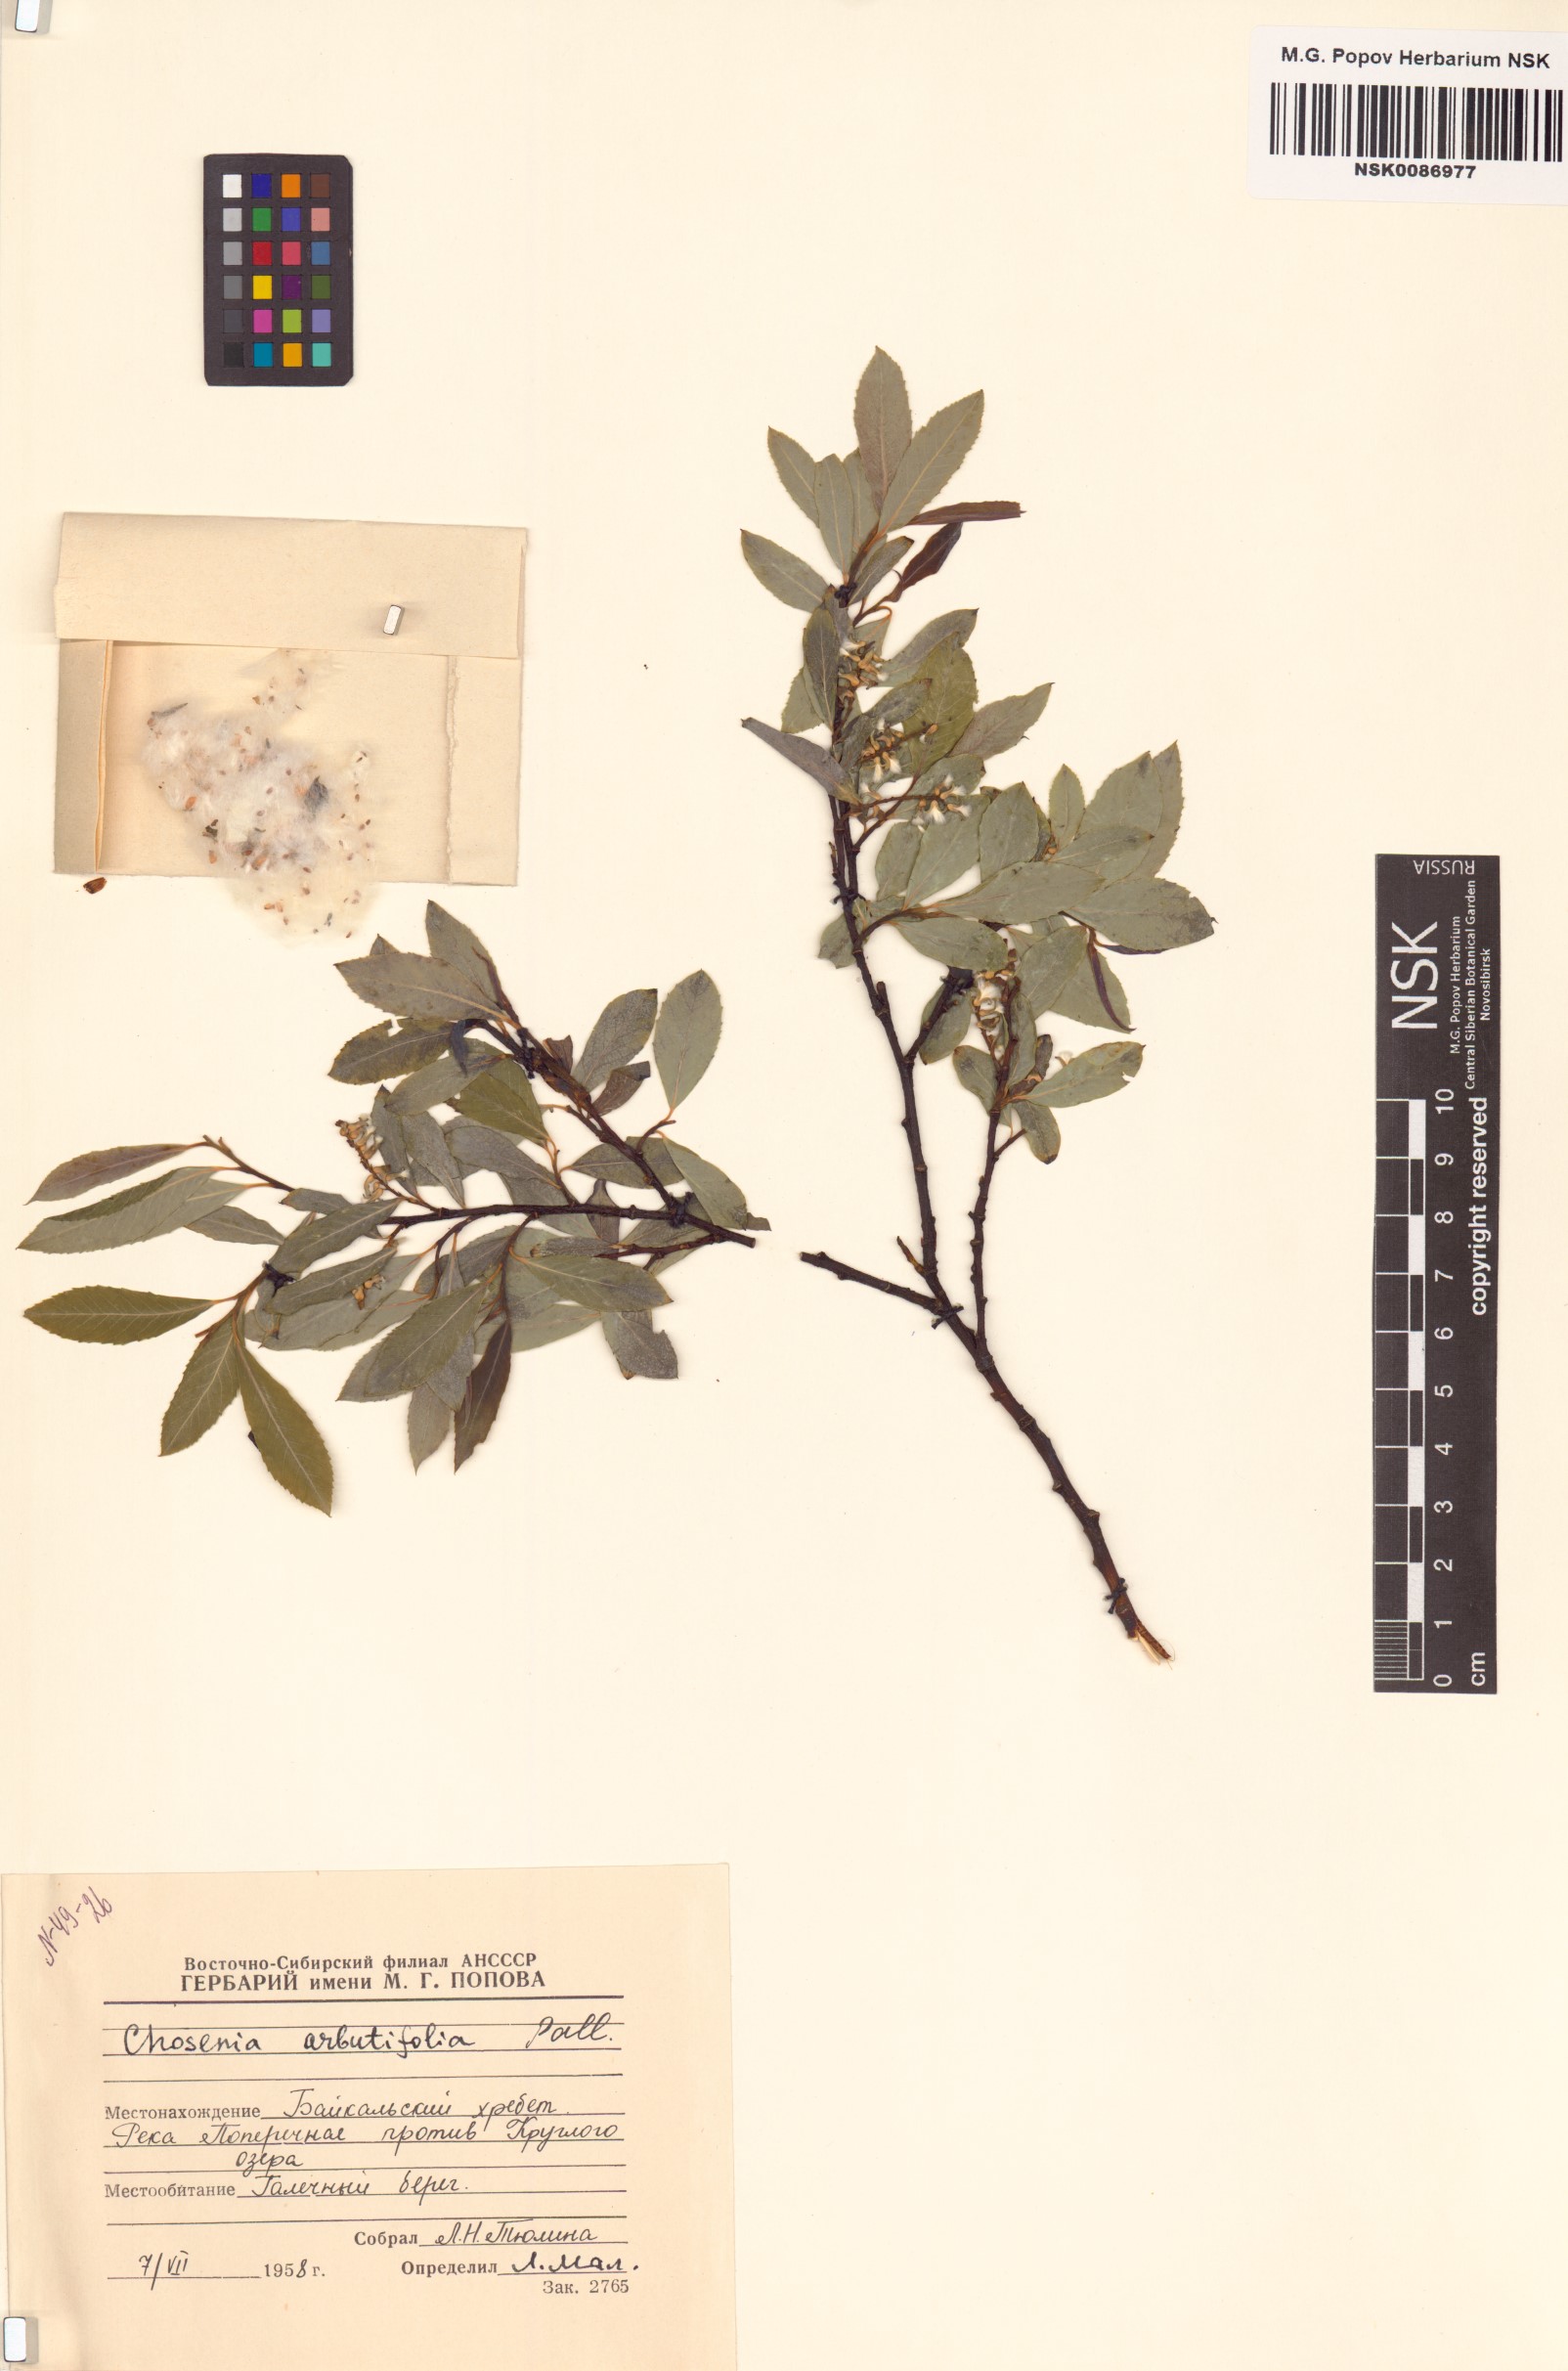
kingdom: Plantae
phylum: Tracheophyta
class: Magnoliopsida
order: Malpighiales
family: Salicaceae
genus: Chosenia
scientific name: Chosenia arbutifolia
